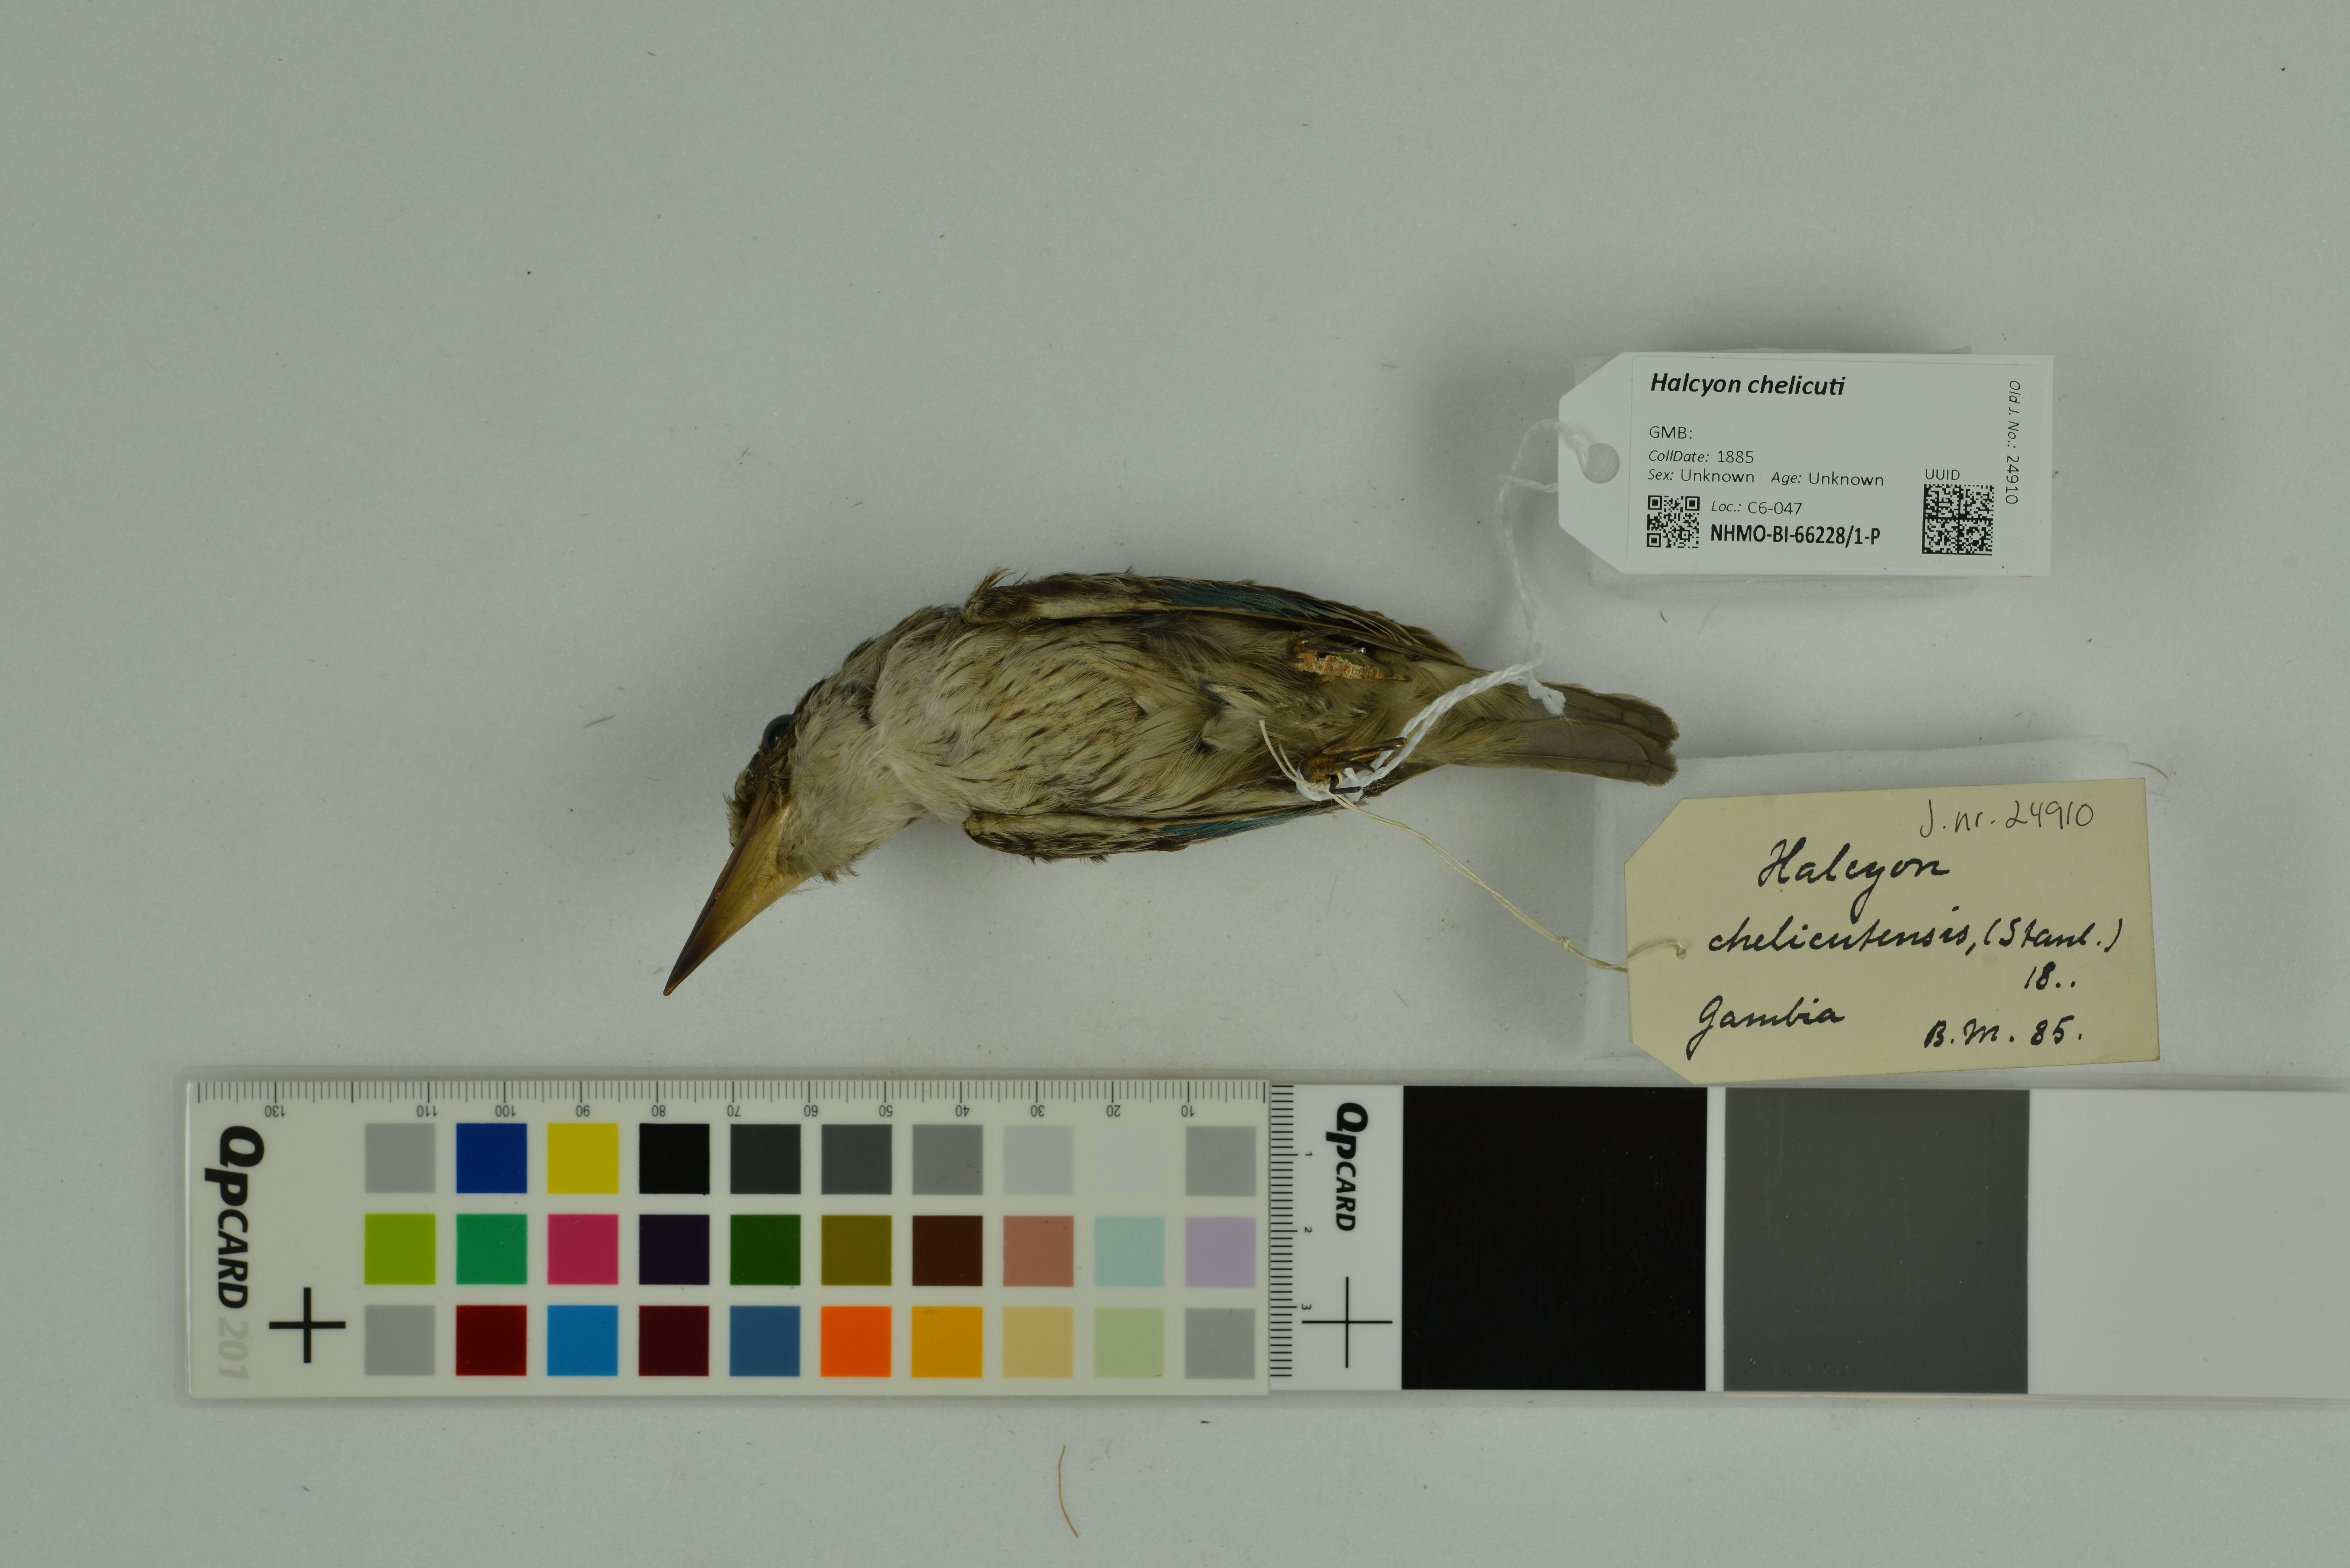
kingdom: Animalia
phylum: Chordata
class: Aves
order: Coraciiformes
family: Alcedinidae
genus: Halcyon
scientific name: Halcyon chelicuti
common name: Striped kingfisher
